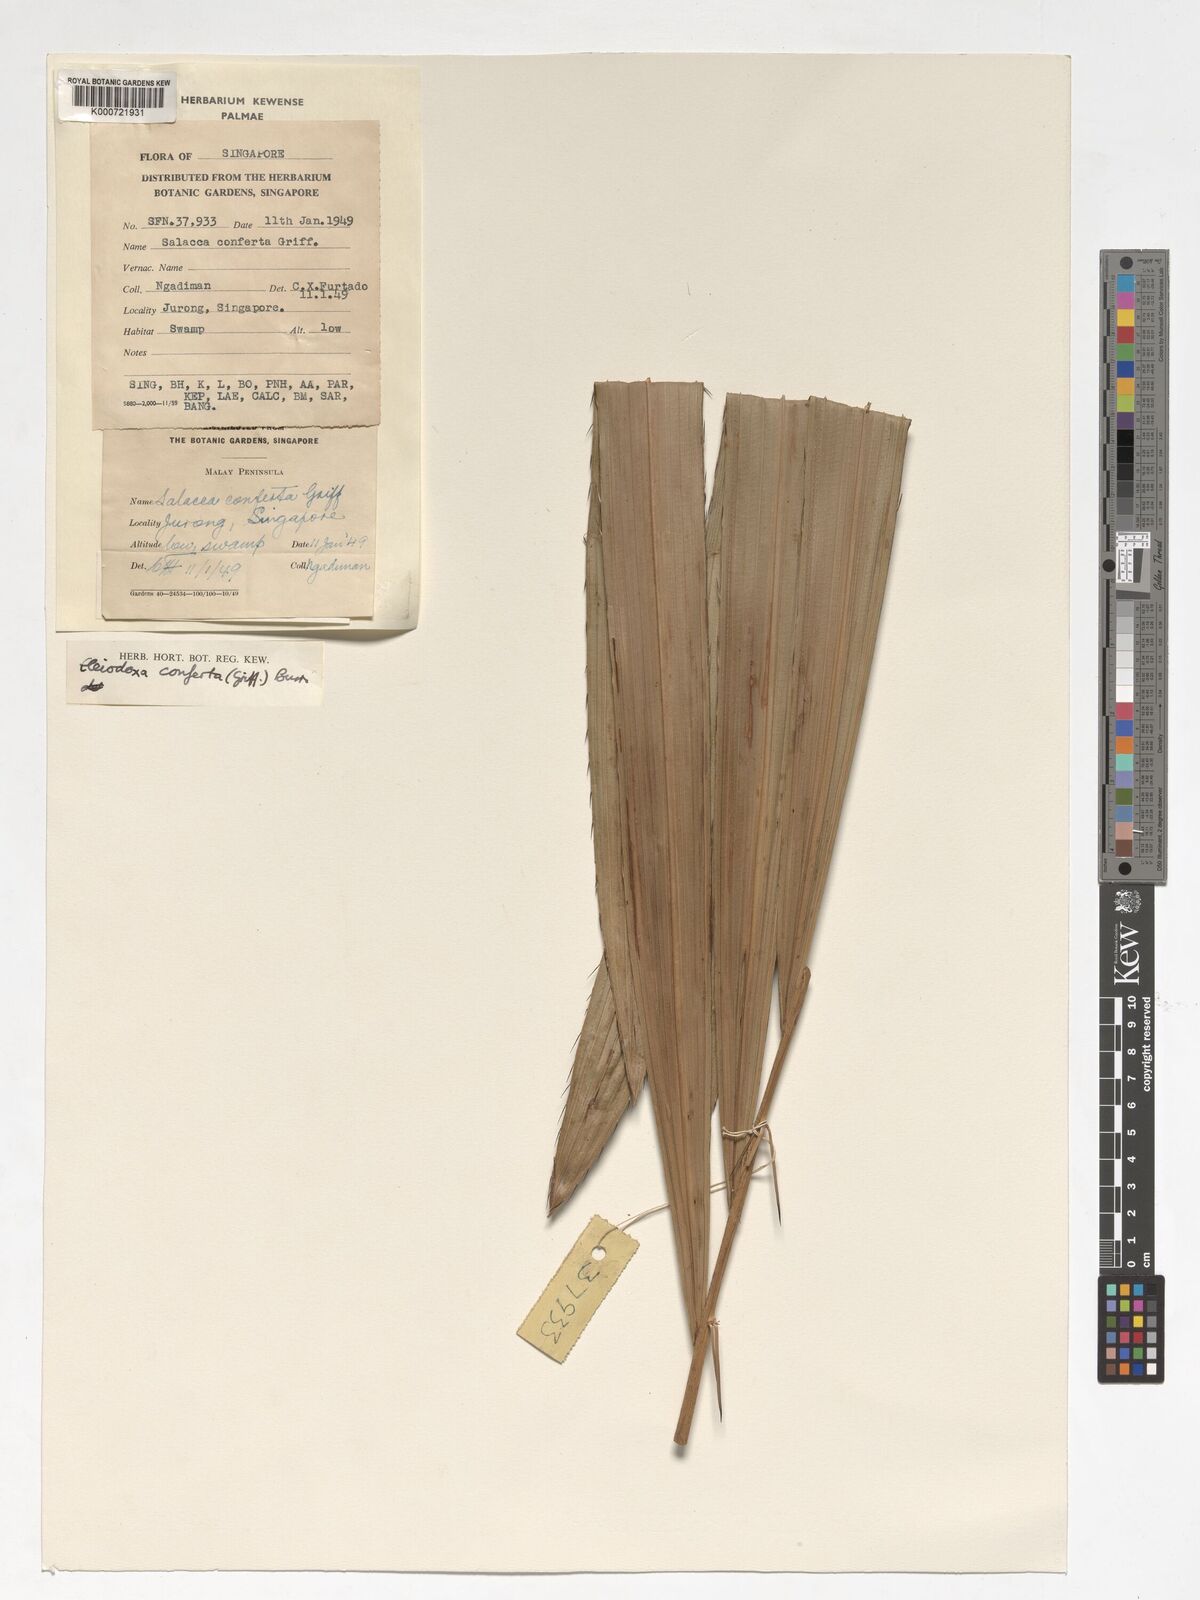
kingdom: Plantae
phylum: Tracheophyta
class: Liliopsida
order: Arecales
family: Arecaceae
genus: Eleiodoxa
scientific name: Eleiodoxa conferta
